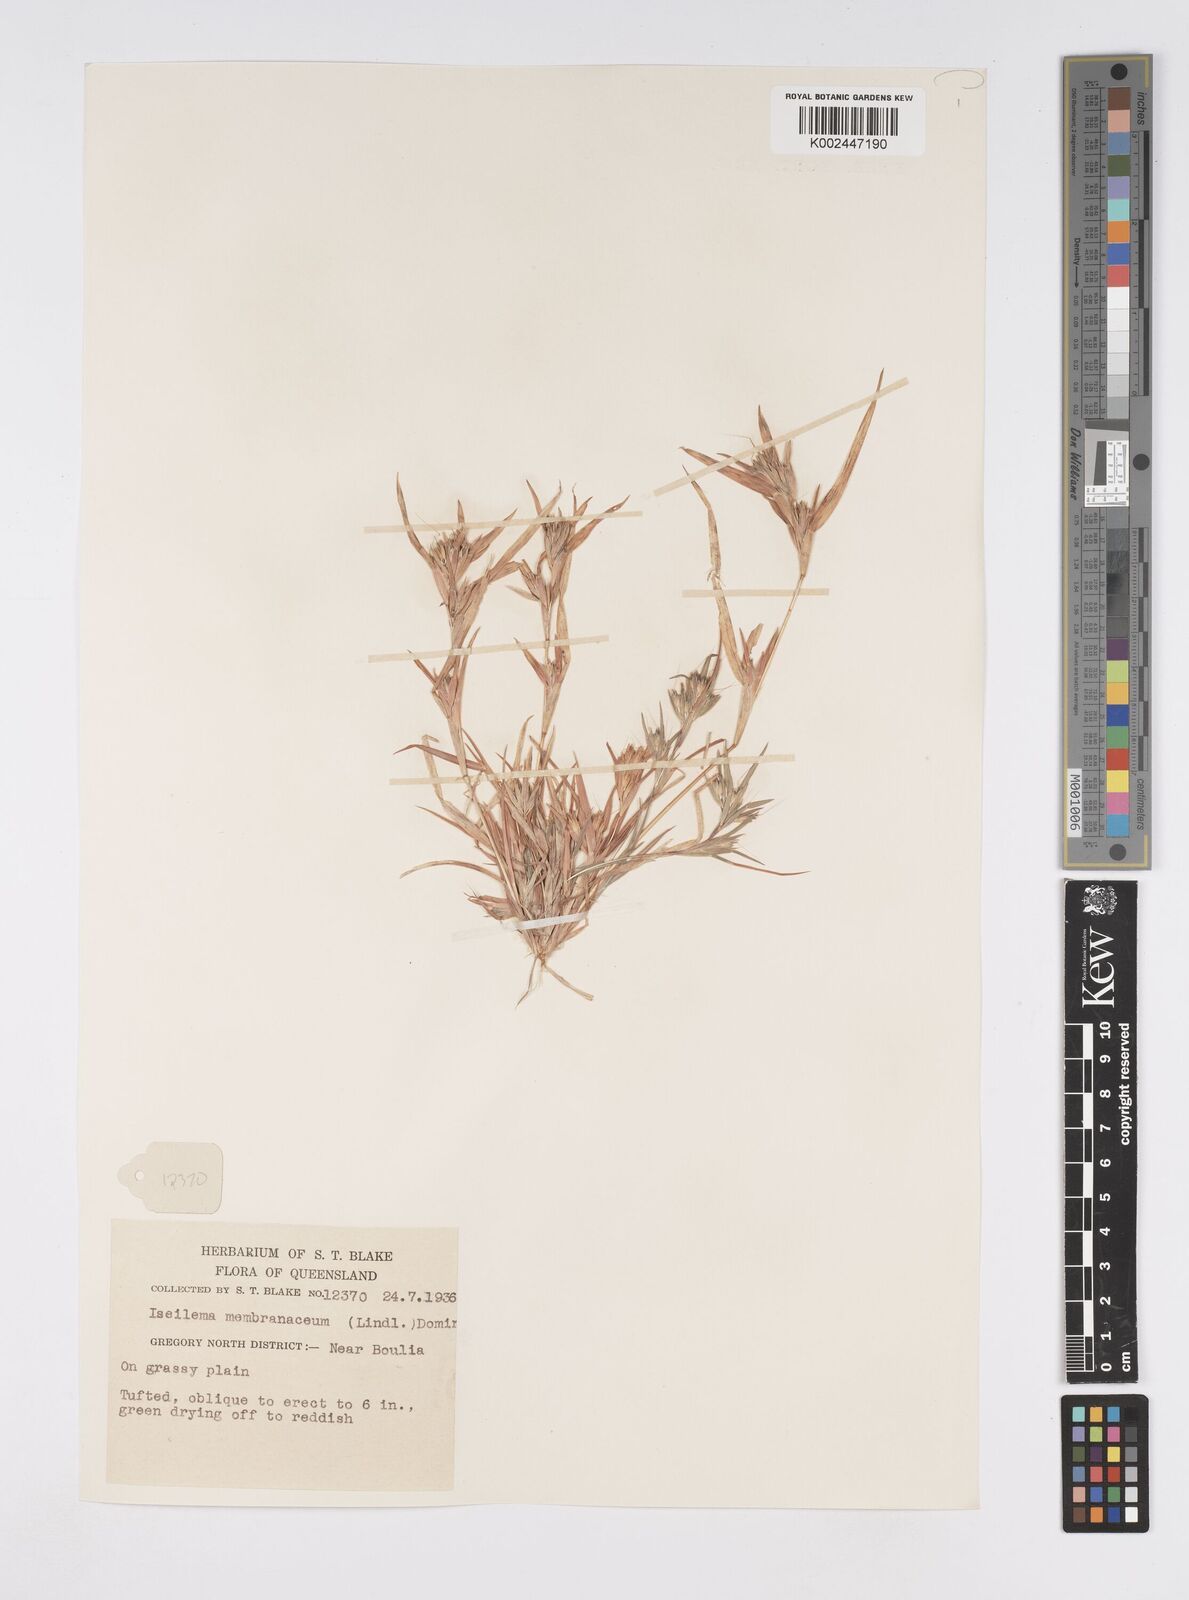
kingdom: Plantae
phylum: Tracheophyta
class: Liliopsida
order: Poales
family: Poaceae
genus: Iseilema
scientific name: Iseilema membranaceum
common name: Small flinders grass
